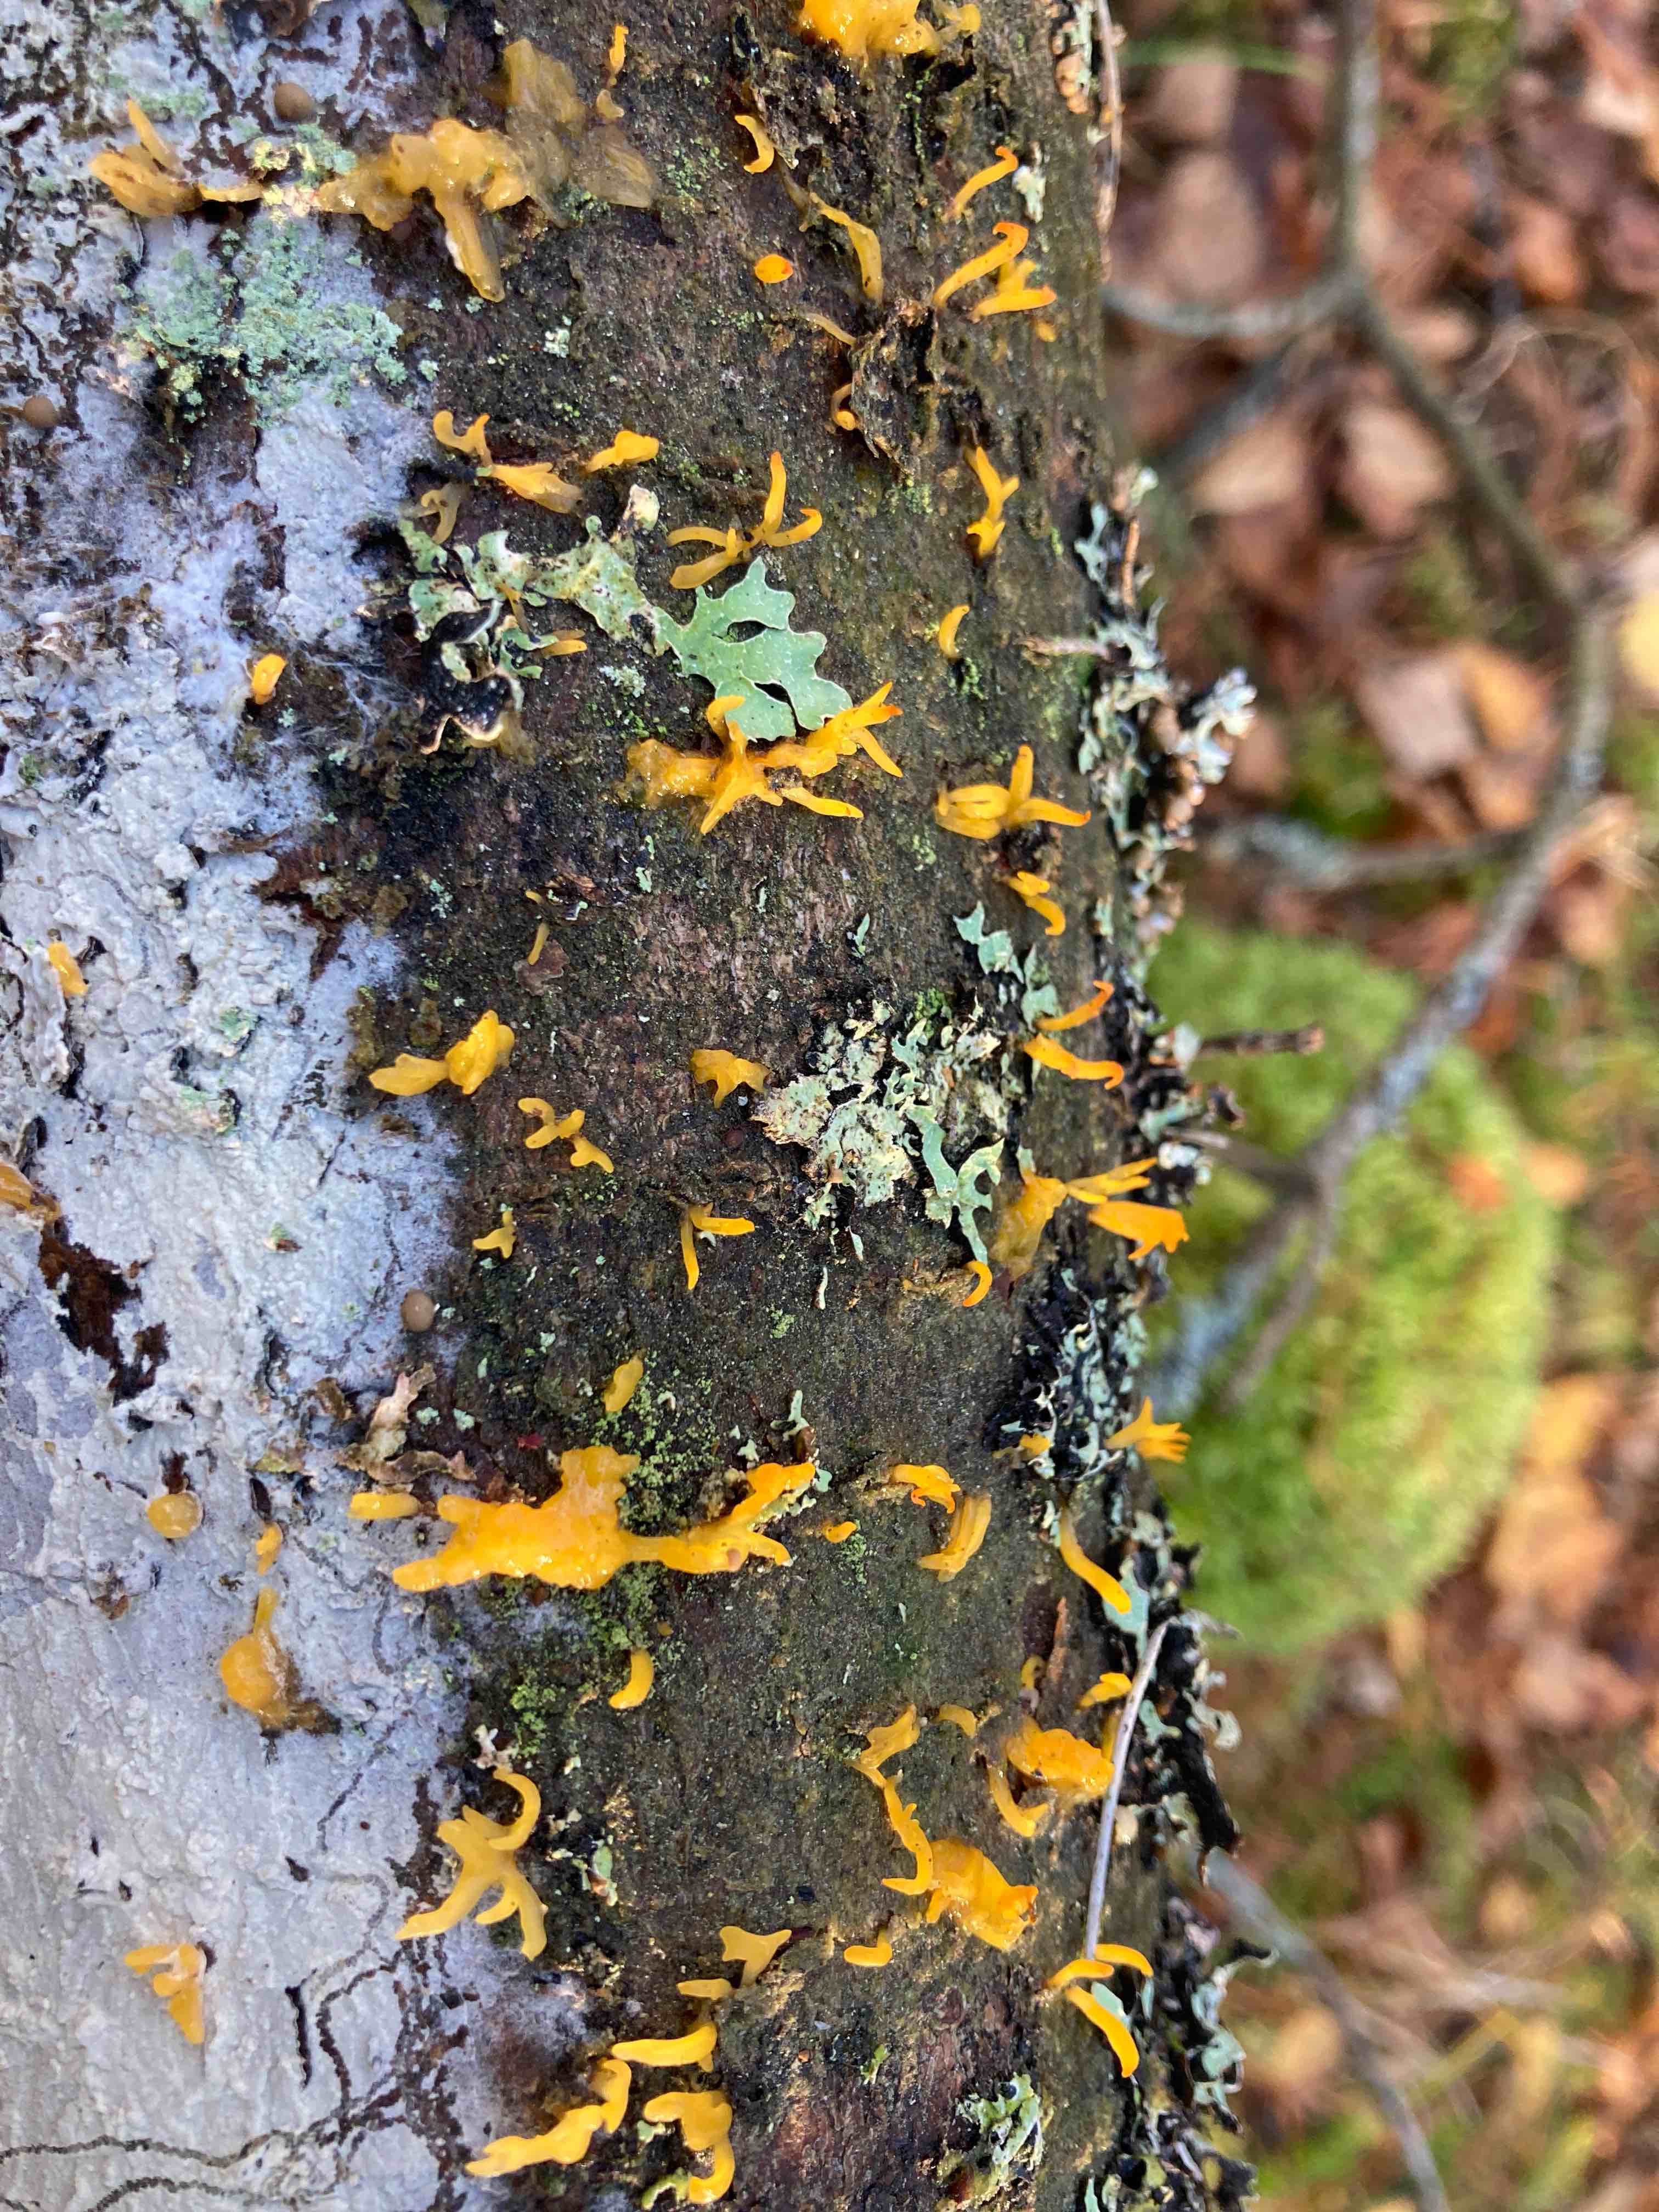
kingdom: Fungi
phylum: Basidiomycota
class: Dacrymycetes
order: Dacrymycetales
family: Dacrymycetaceae
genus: Calocera
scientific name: Calocera furcata
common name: fyrre-guldgaffel
